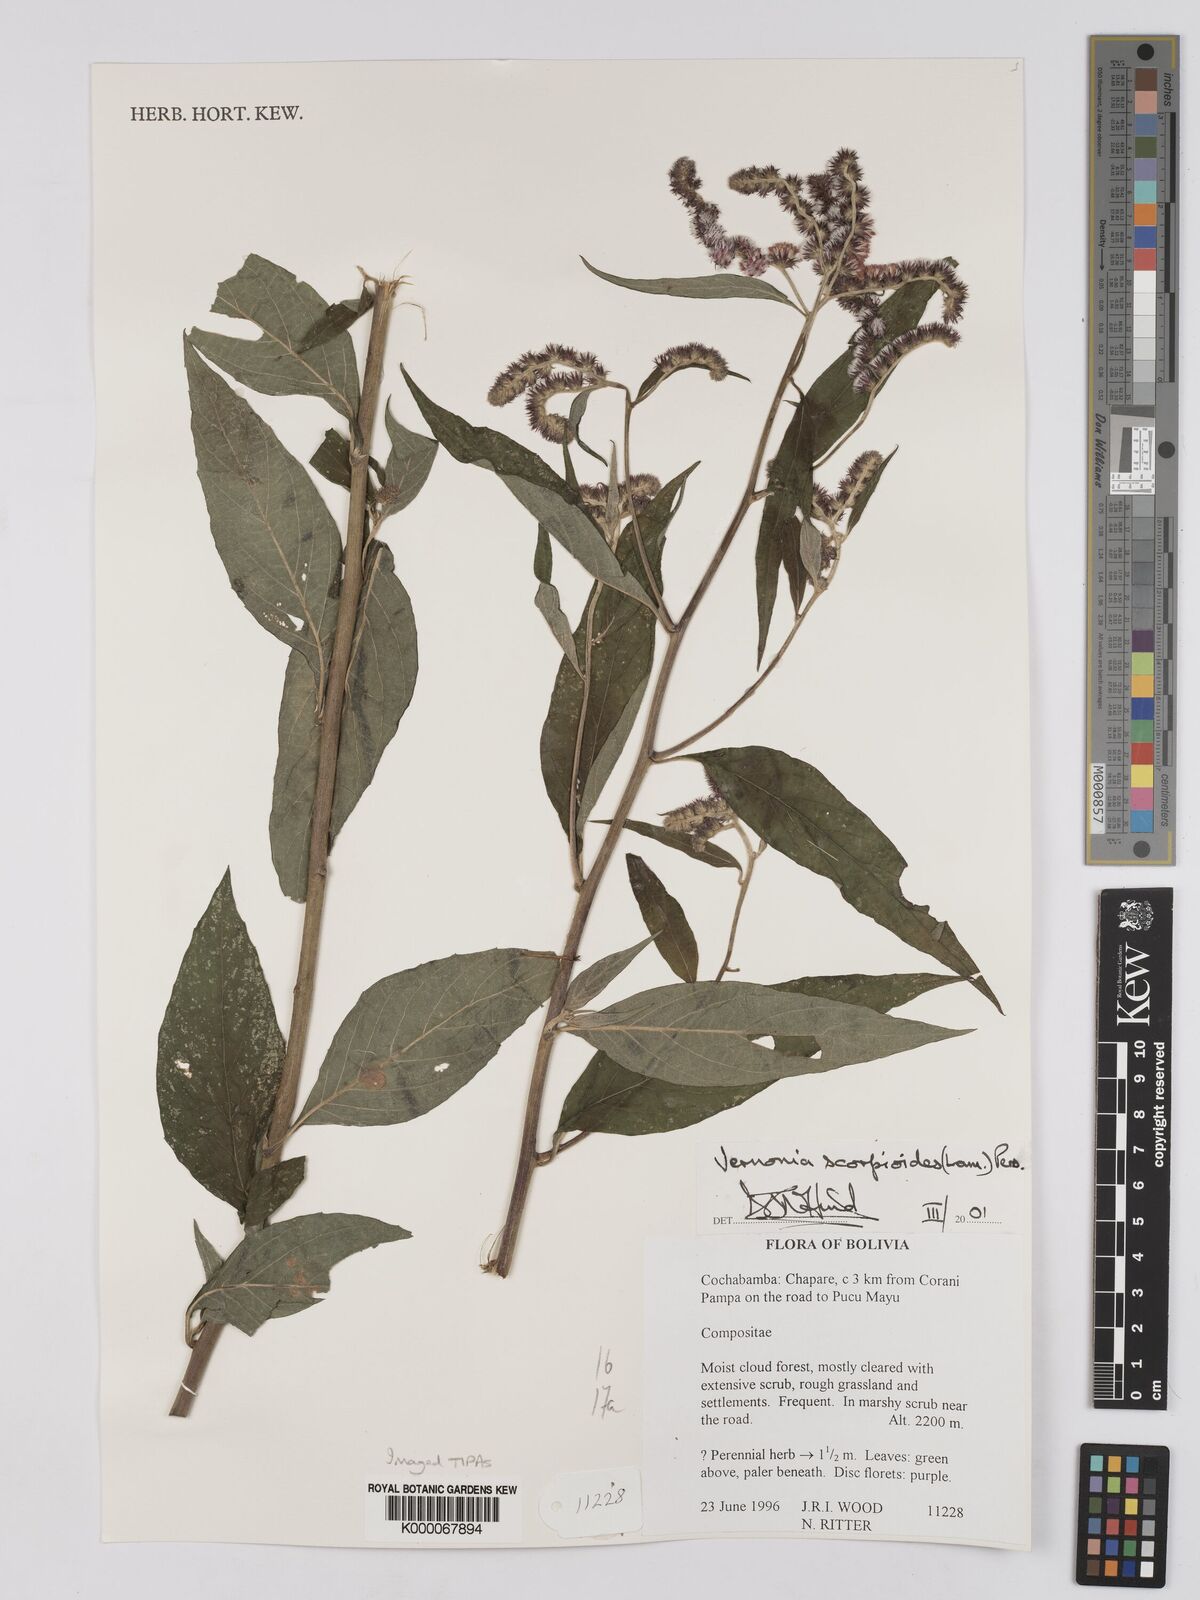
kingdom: Plantae
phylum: Tracheophyta
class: Magnoliopsida
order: Asterales
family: Asteraceae
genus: Cyrtocymura
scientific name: Cyrtocymura scorpioides
